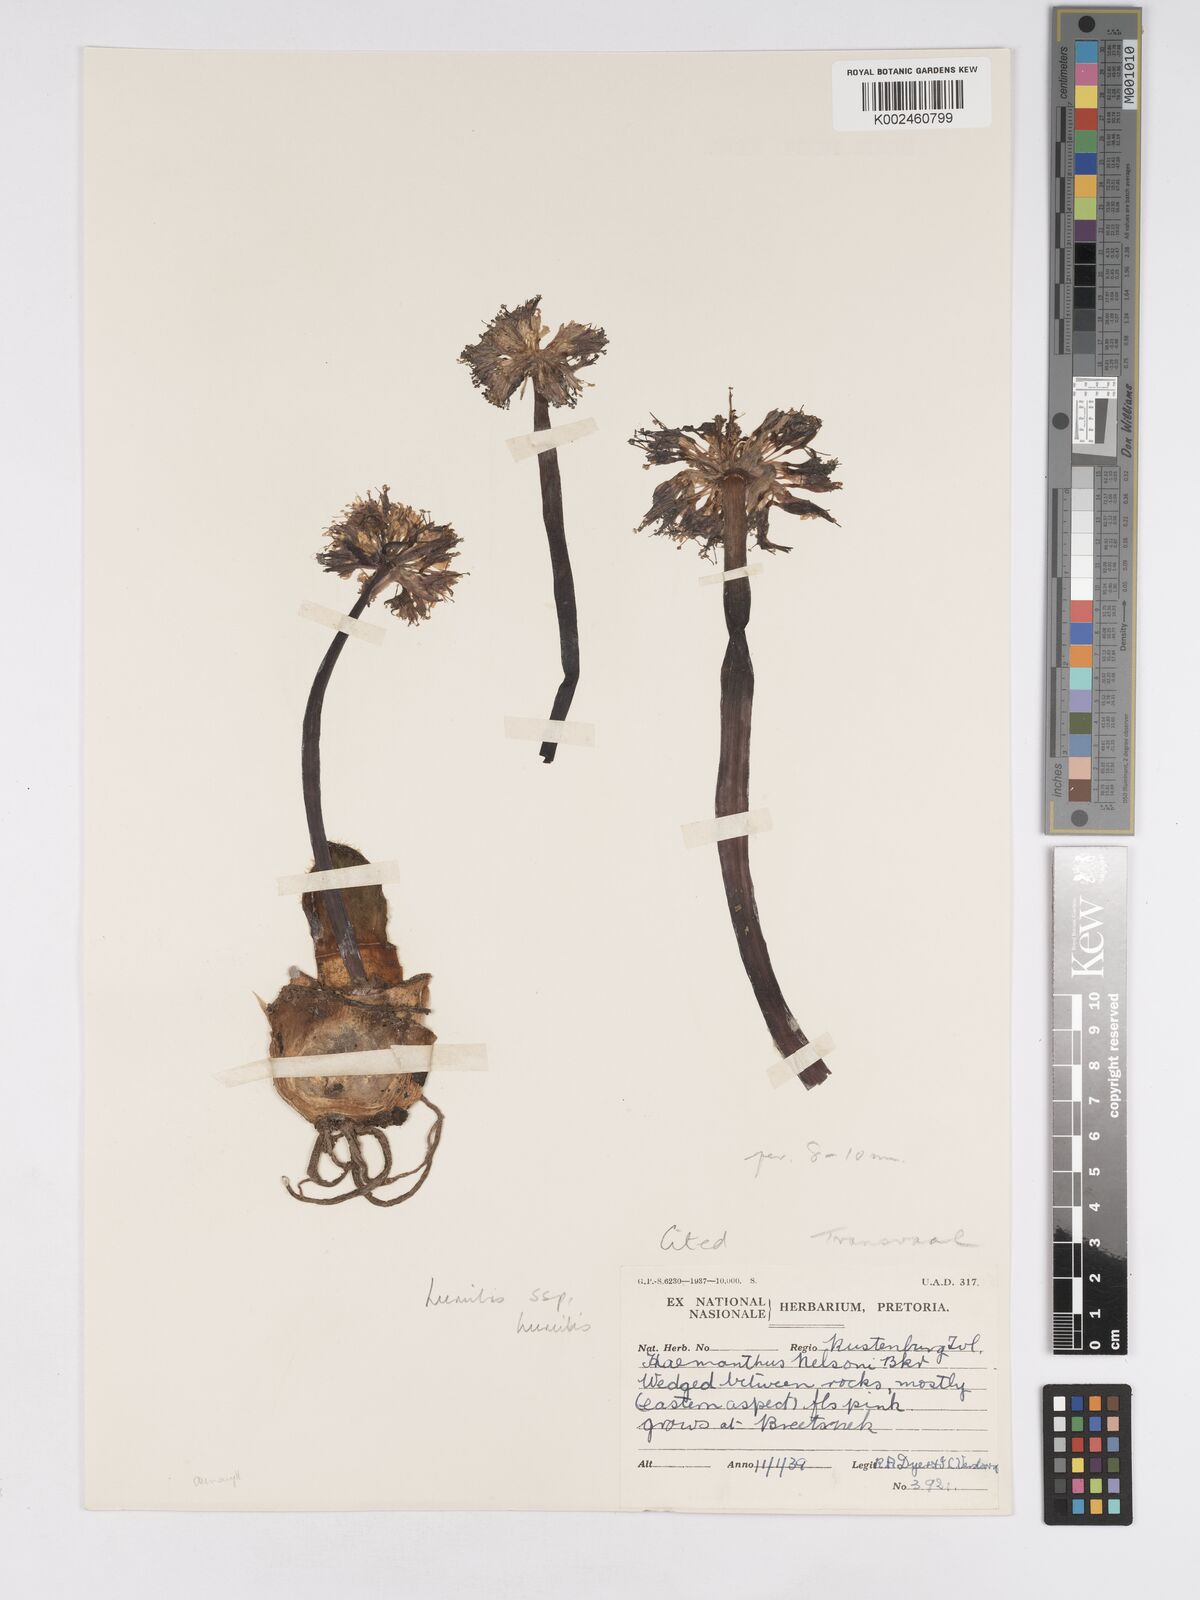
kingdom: Plantae
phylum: Tracheophyta
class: Liliopsida
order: Asparagales
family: Amaryllidaceae
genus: Haemanthus
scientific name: Haemanthus humilis
